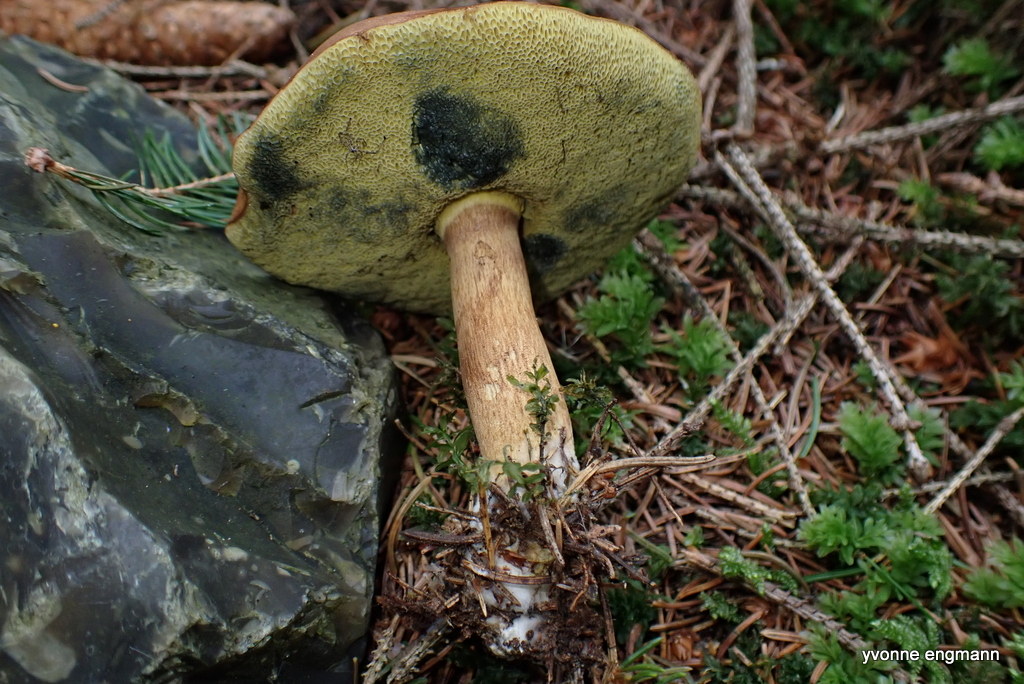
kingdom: Fungi
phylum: Basidiomycota
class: Agaricomycetes
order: Boletales
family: Boletaceae
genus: Imleria
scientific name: Imleria badia
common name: brunstokket rørhat
